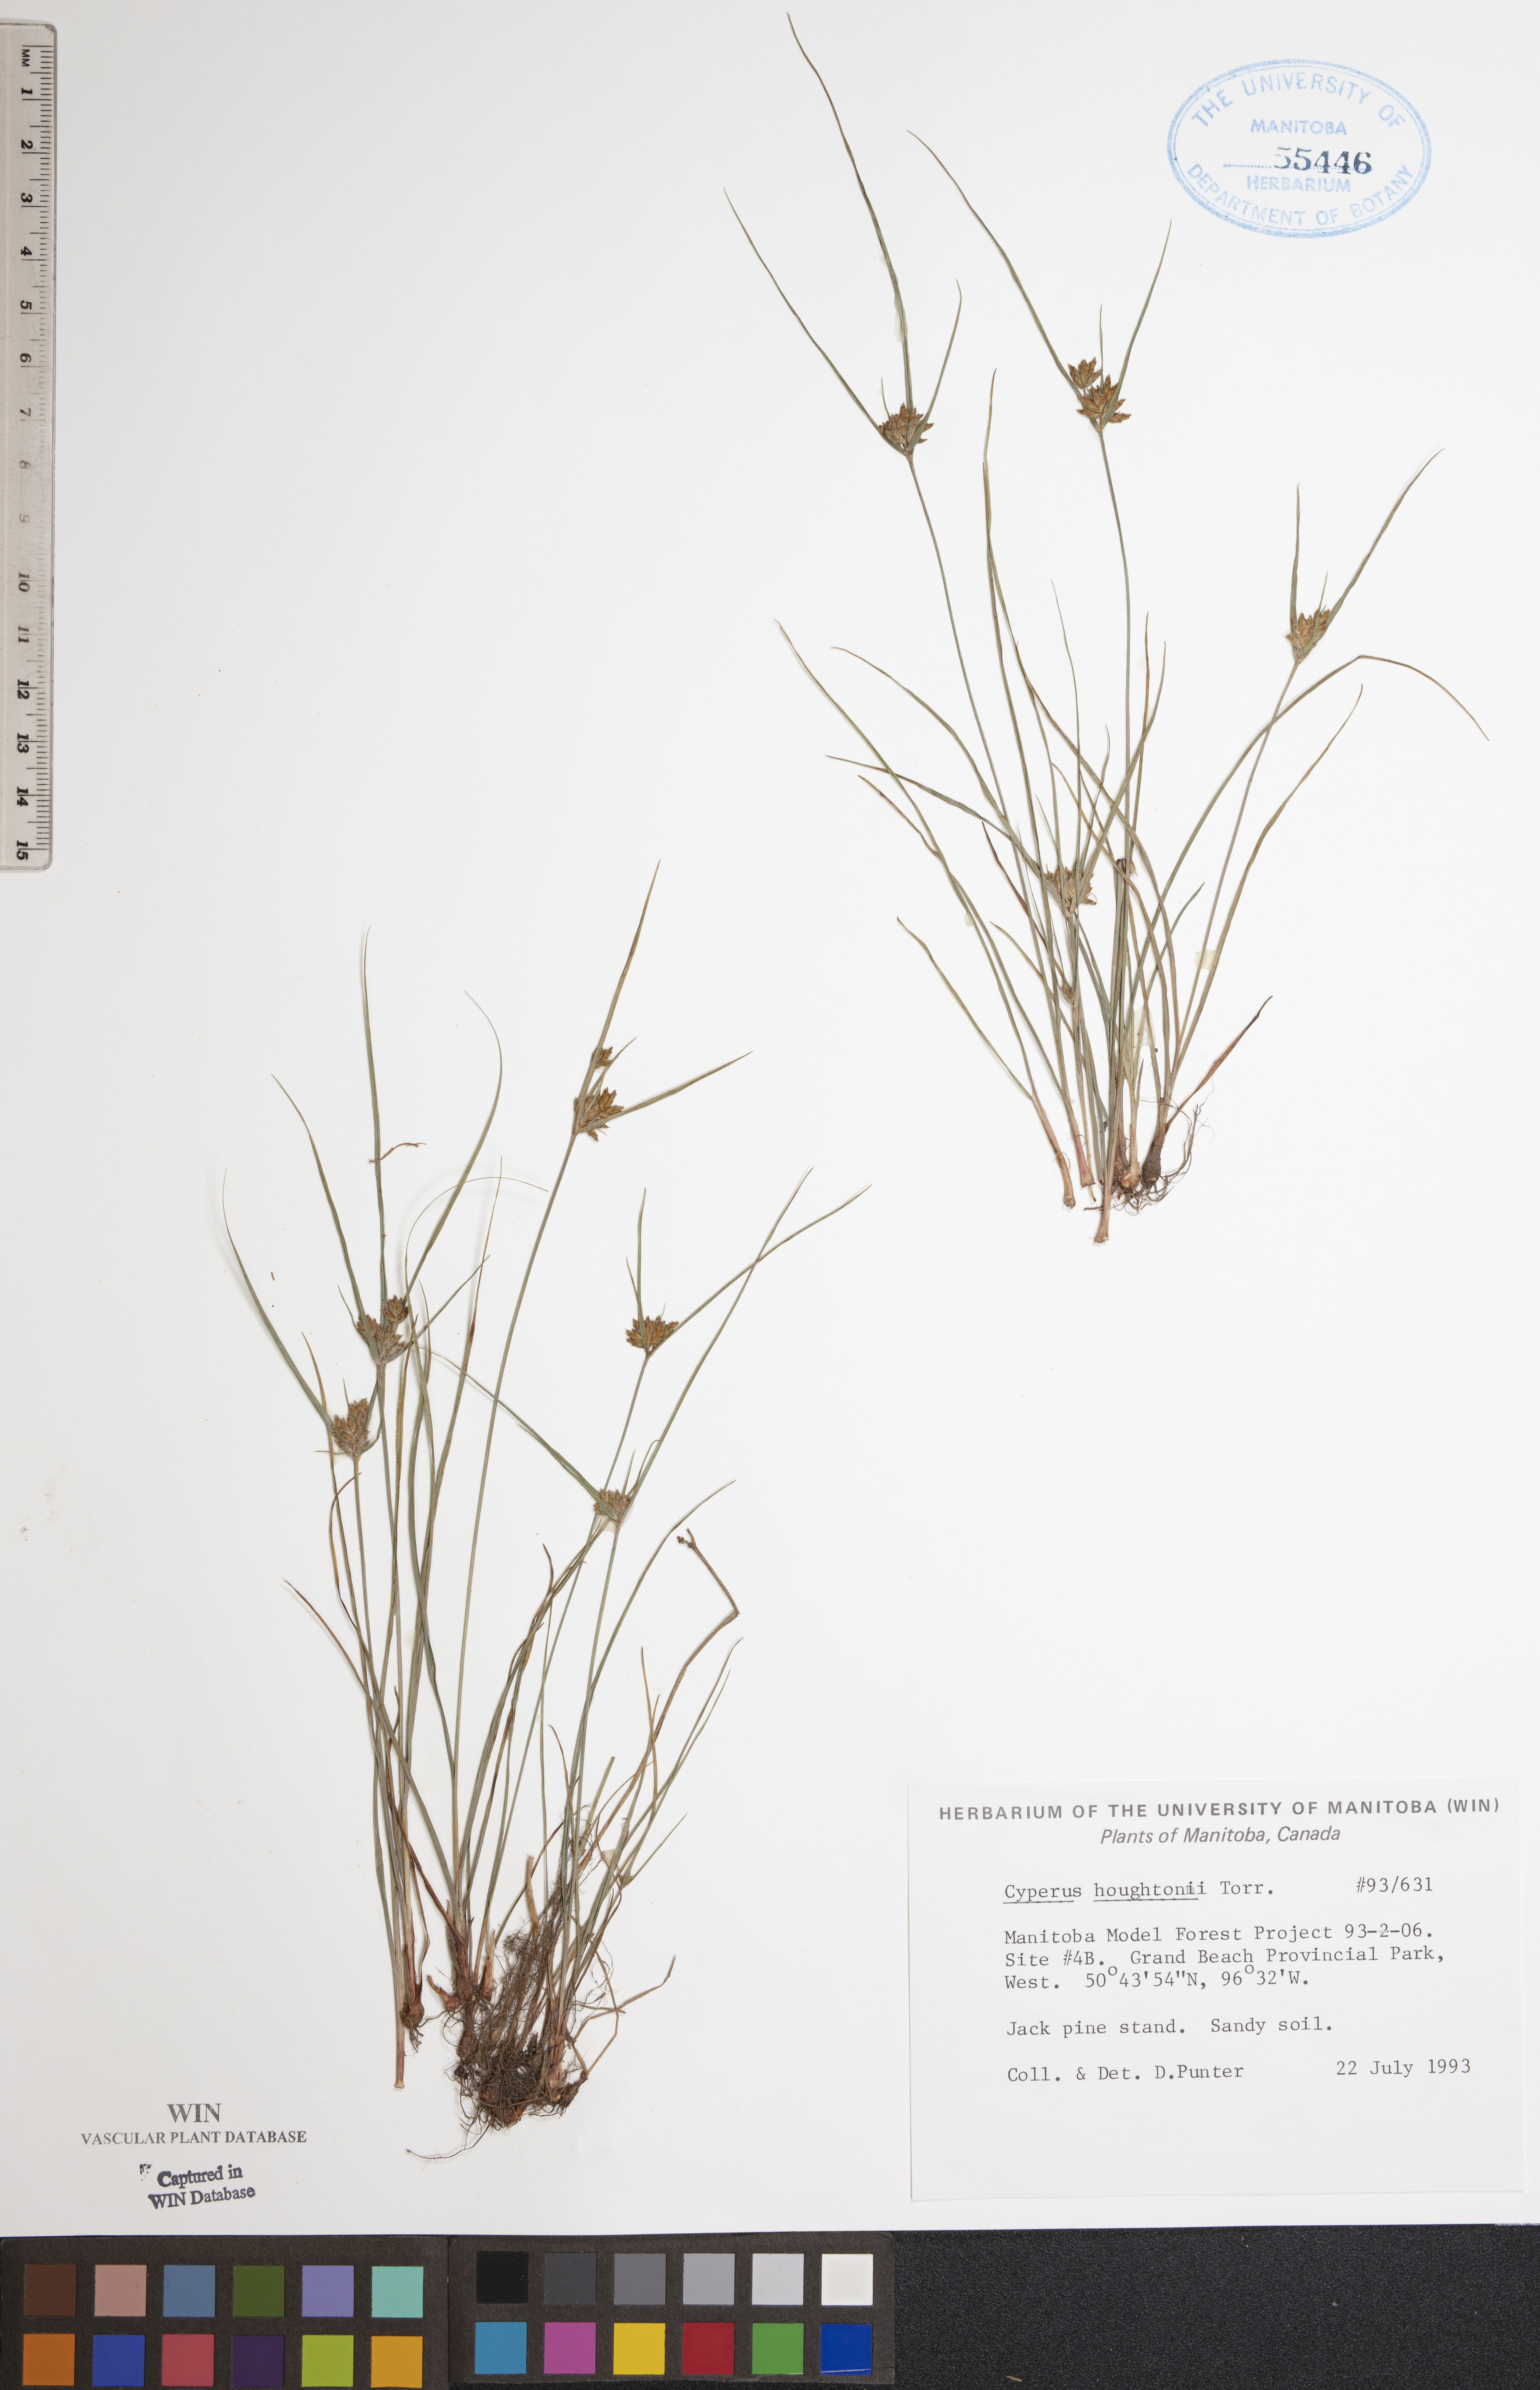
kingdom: Plantae
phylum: Tracheophyta
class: Liliopsida
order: Poales
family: Cyperaceae
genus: Cyperus
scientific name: Cyperus houghtonii
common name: Houghton's cyperus
